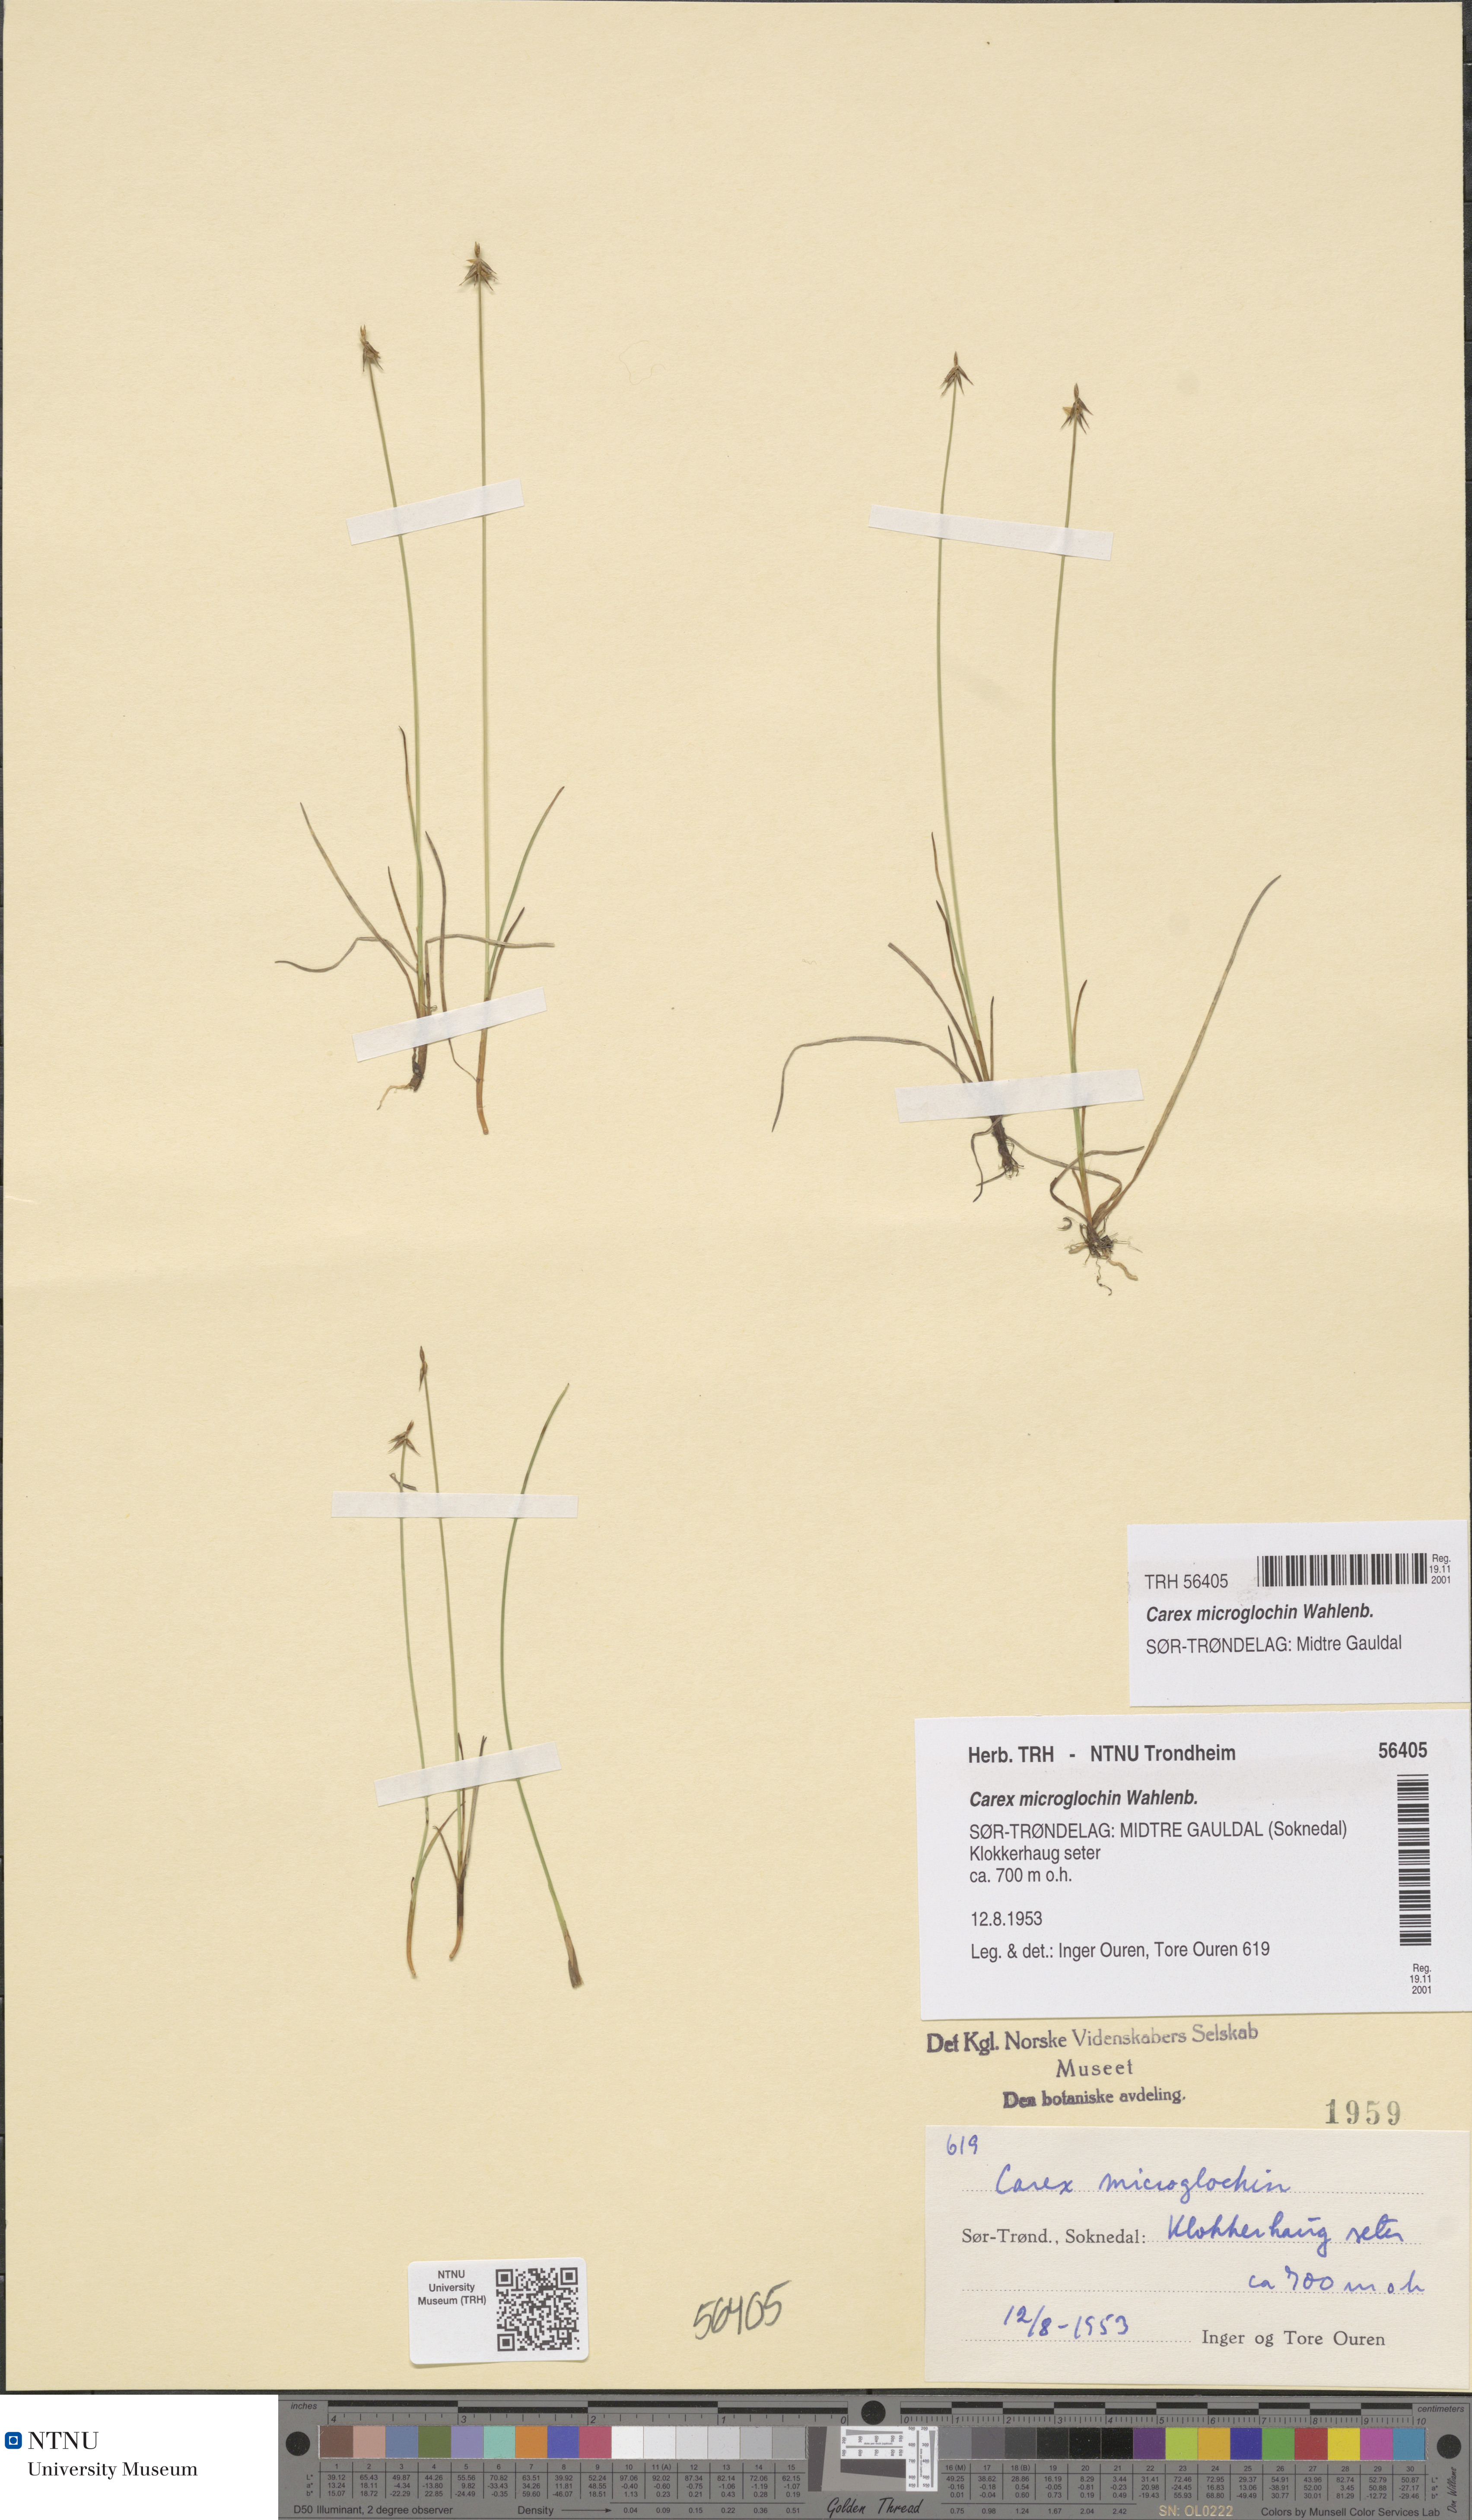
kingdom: Plantae
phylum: Tracheophyta
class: Liliopsida
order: Poales
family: Cyperaceae
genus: Carex
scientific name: Carex microglochin
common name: Bristle sedge
